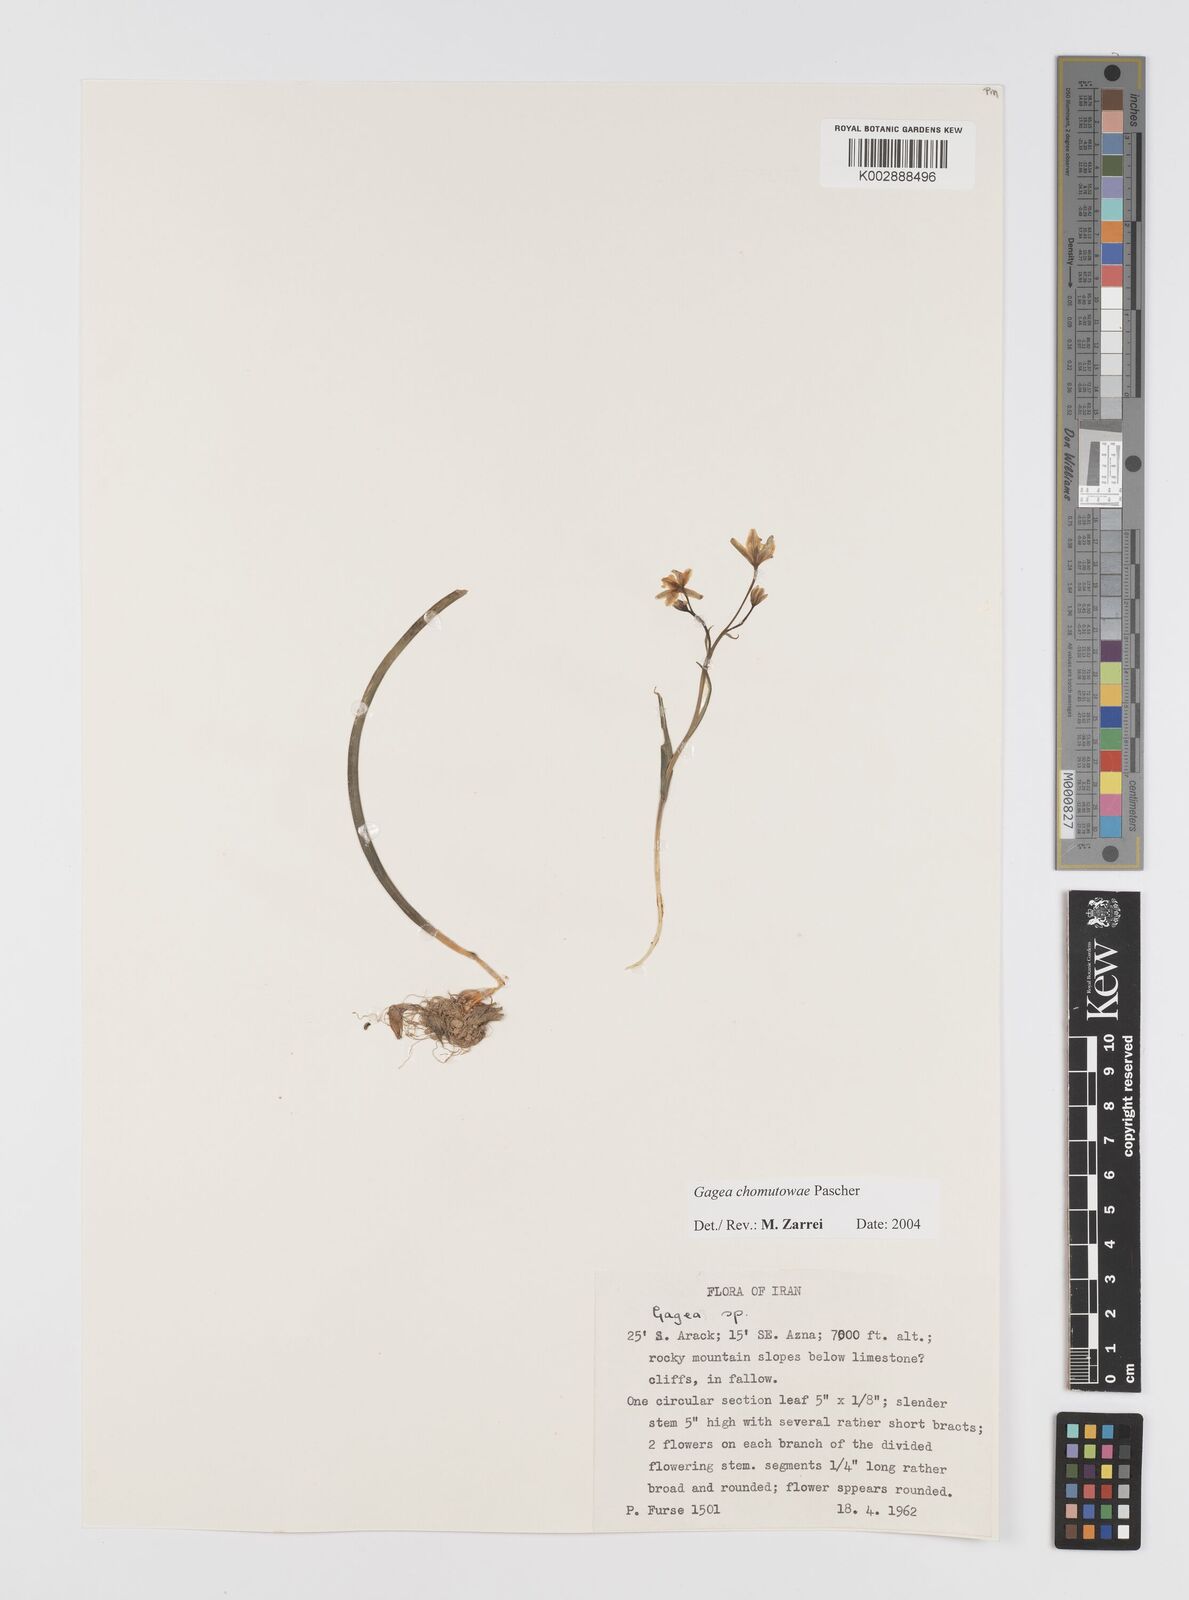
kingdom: Plantae
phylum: Tracheophyta
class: Liliopsida
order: Liliales
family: Liliaceae
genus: Gagea
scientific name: Gagea chomutovae
